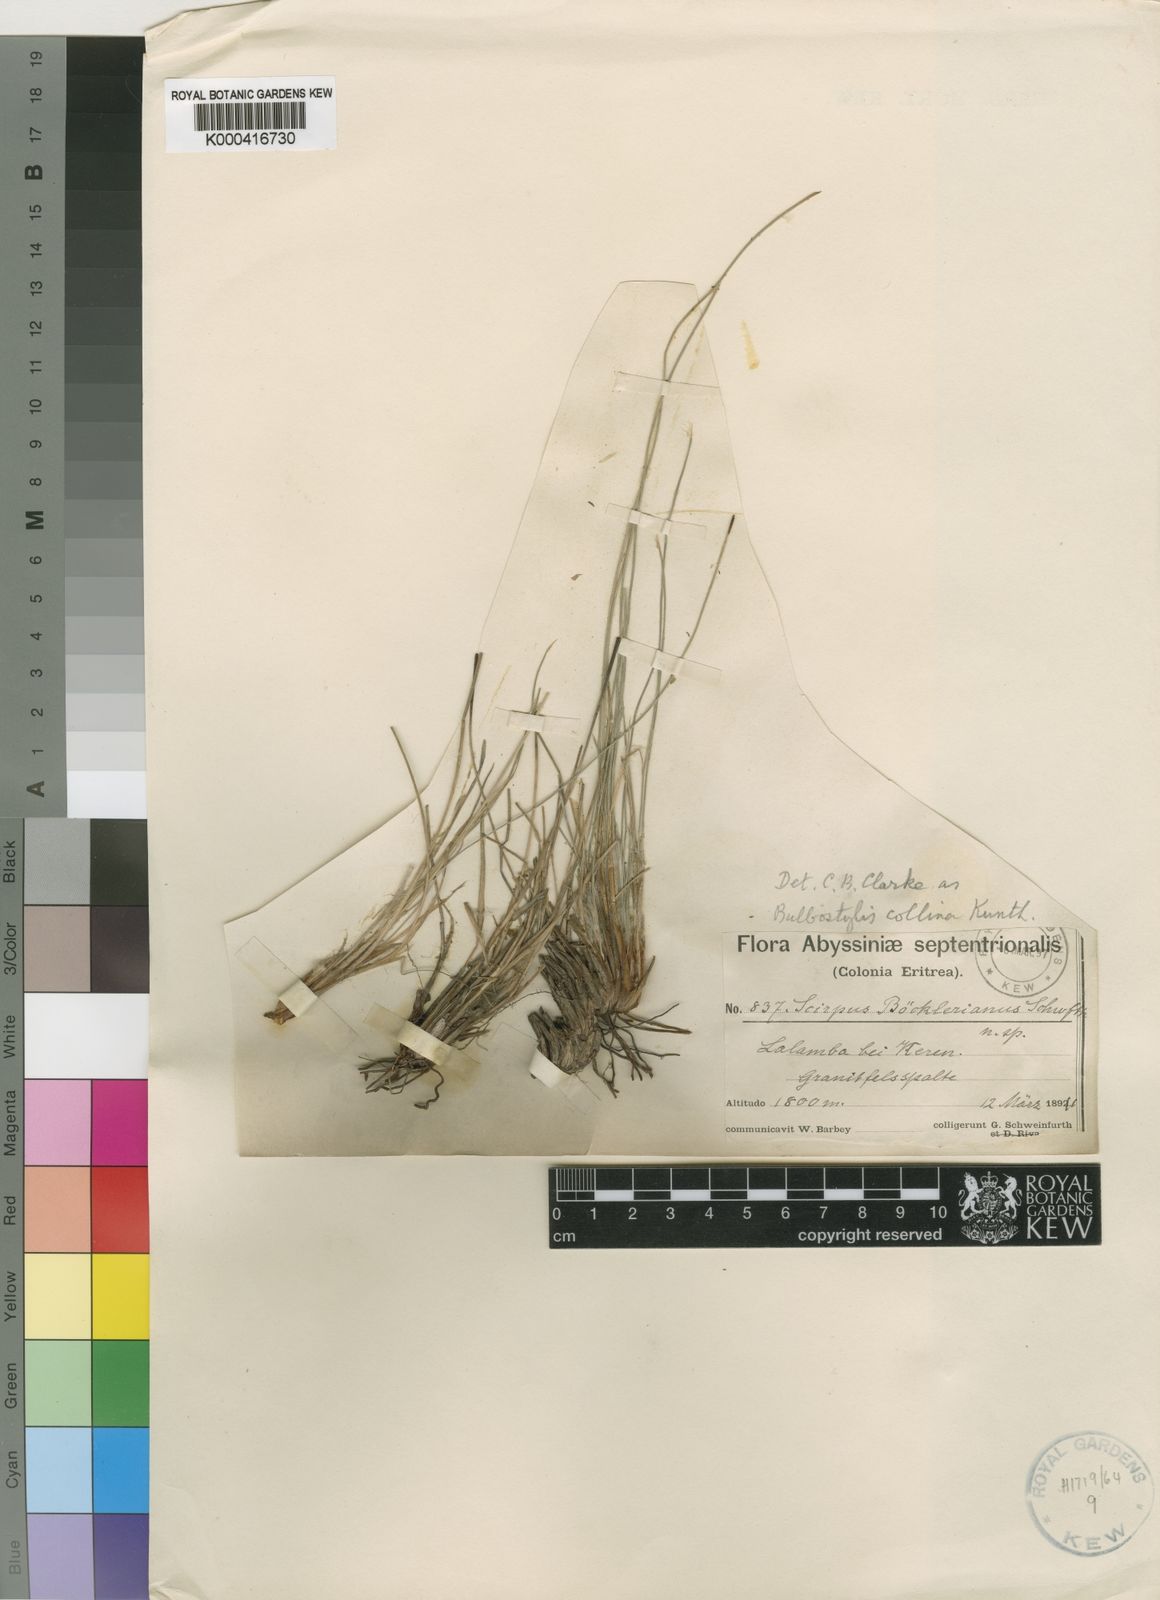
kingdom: Plantae
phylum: Tracheophyta
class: Liliopsida
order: Poales
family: Cyperaceae
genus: Bulbostylis
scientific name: Bulbostylis boeckeleriana
